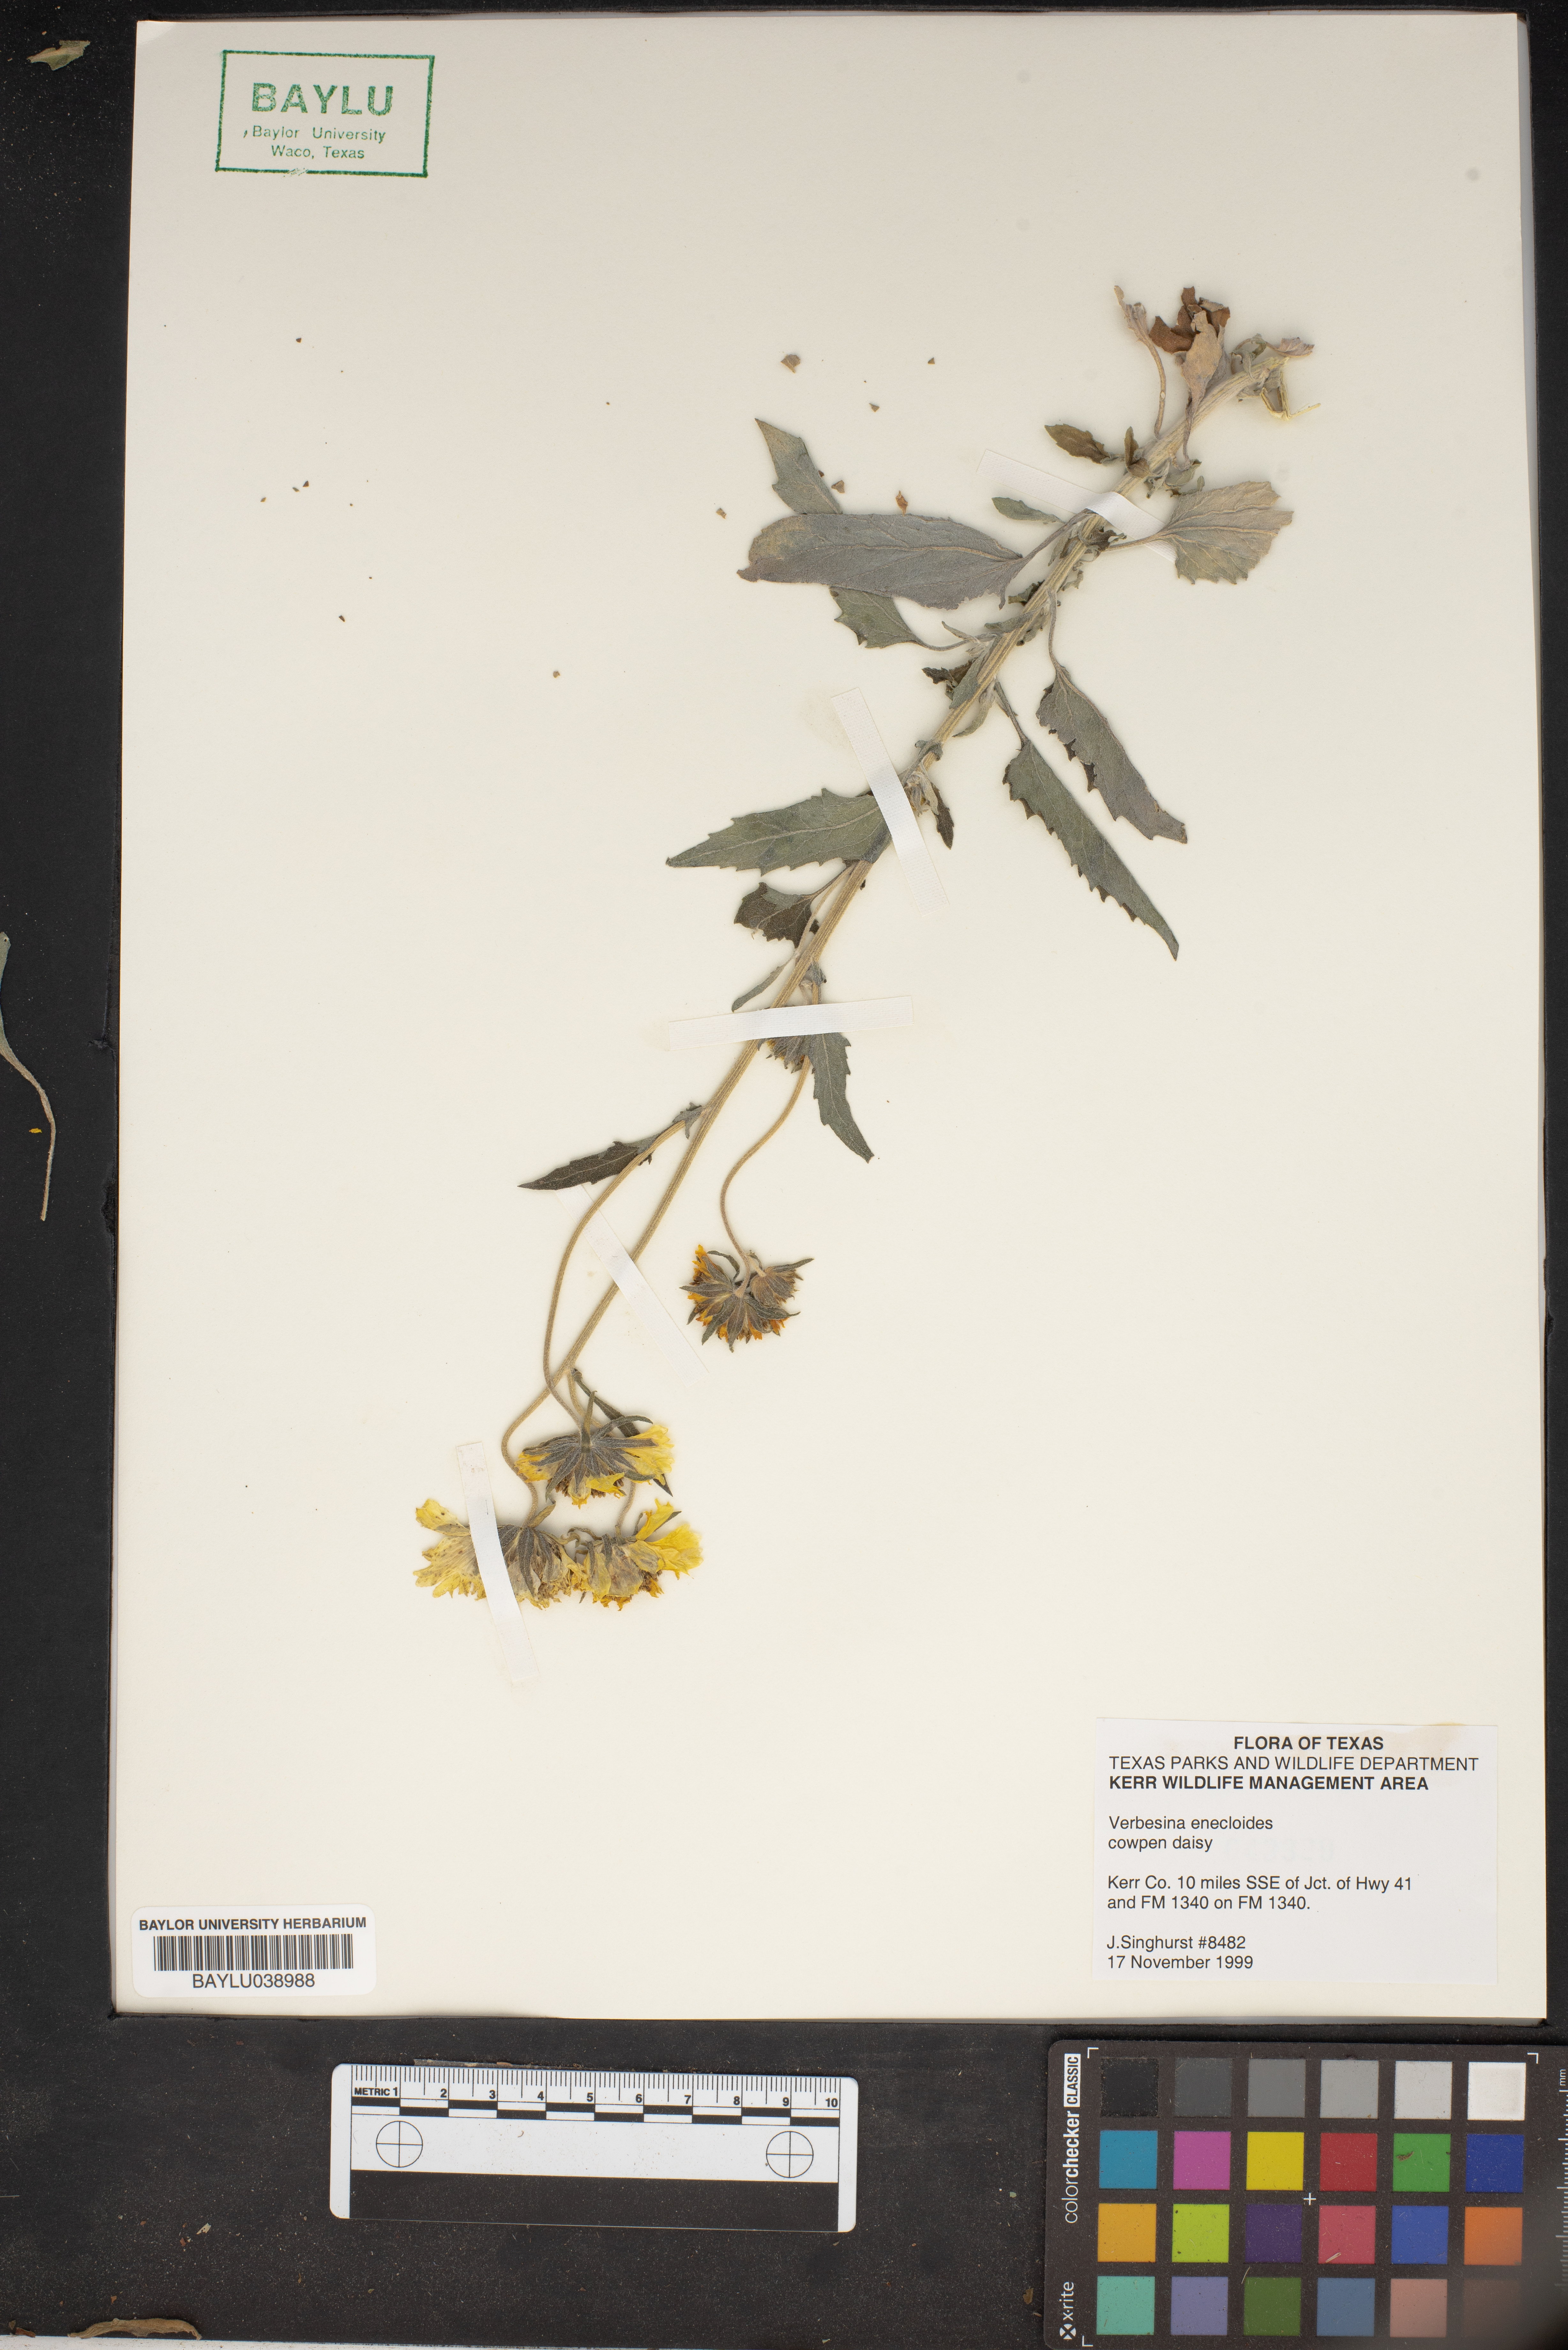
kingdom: Plantae
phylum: Tracheophyta
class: Magnoliopsida
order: Asterales
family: Asteraceae
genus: Verbesina
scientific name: Verbesina encelioides
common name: Golden crownbeard
